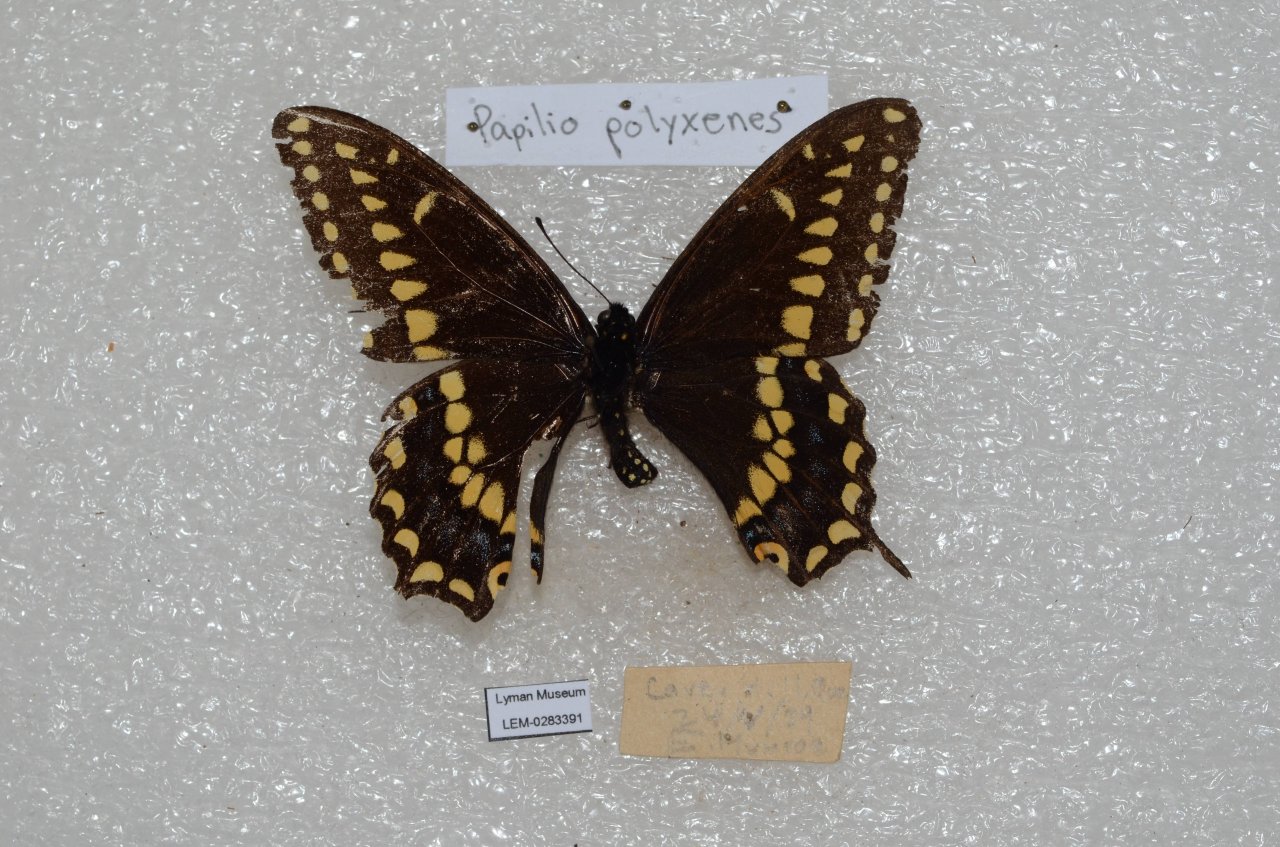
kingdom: Animalia
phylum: Arthropoda
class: Insecta
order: Lepidoptera
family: Papilionidae
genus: Papilio
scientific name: Papilio polyxenes
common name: Black Swallowtail
